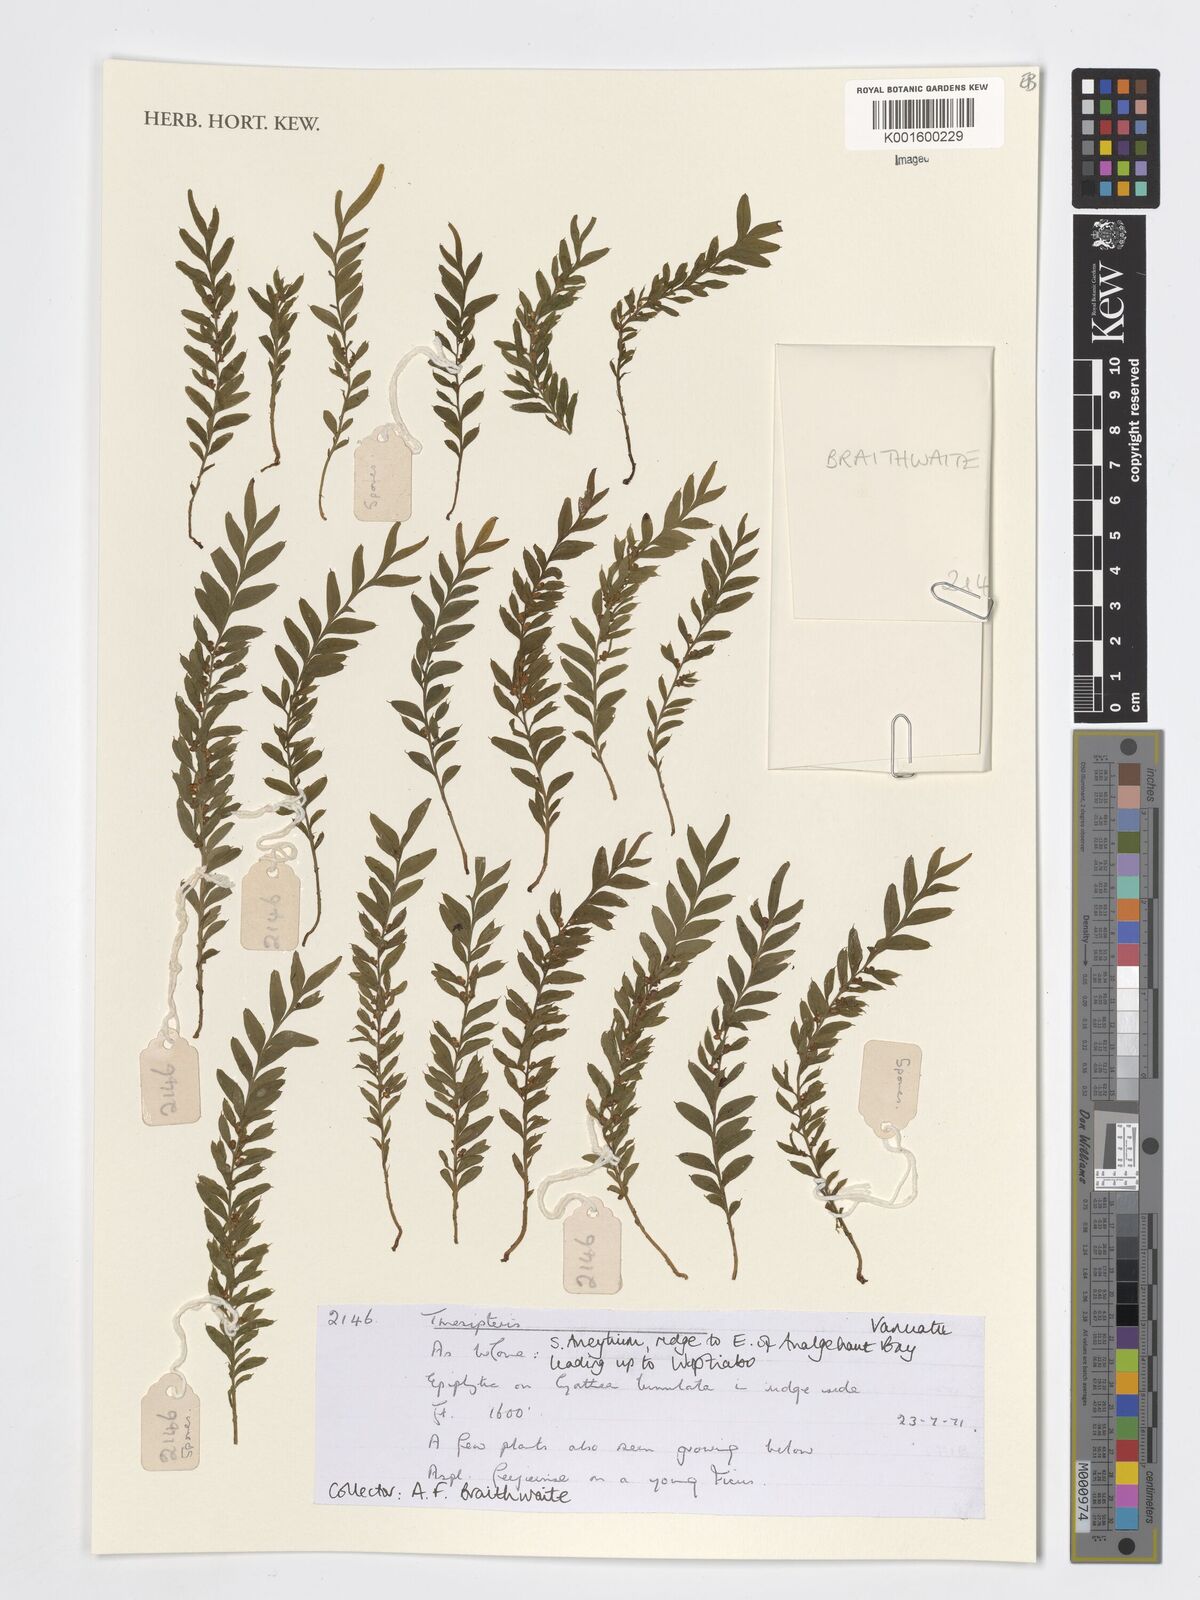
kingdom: Plantae
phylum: Tracheophyta
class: Polypodiopsida
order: Psilotales
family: Psilotaceae
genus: Tmesipteris
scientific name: Tmesipteris
